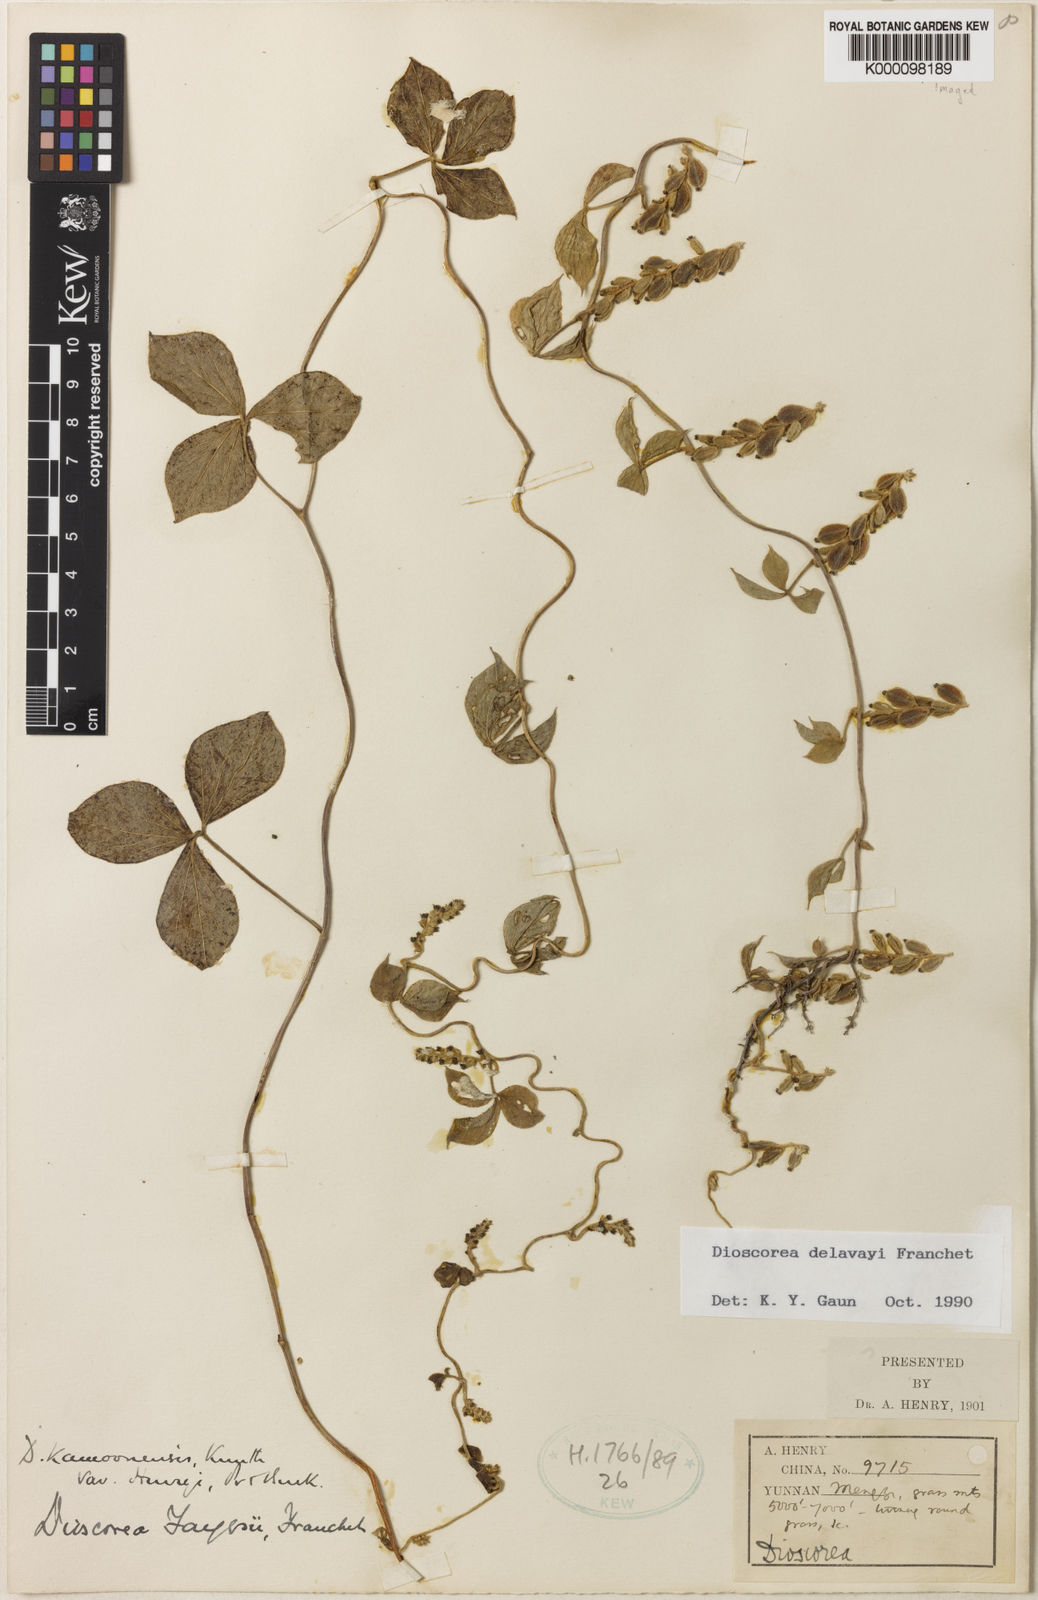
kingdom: Plantae
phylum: Tracheophyta
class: Liliopsida
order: Dioscoreales
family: Dioscoreaceae
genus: Dioscorea
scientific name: Dioscorea kamoonensis
